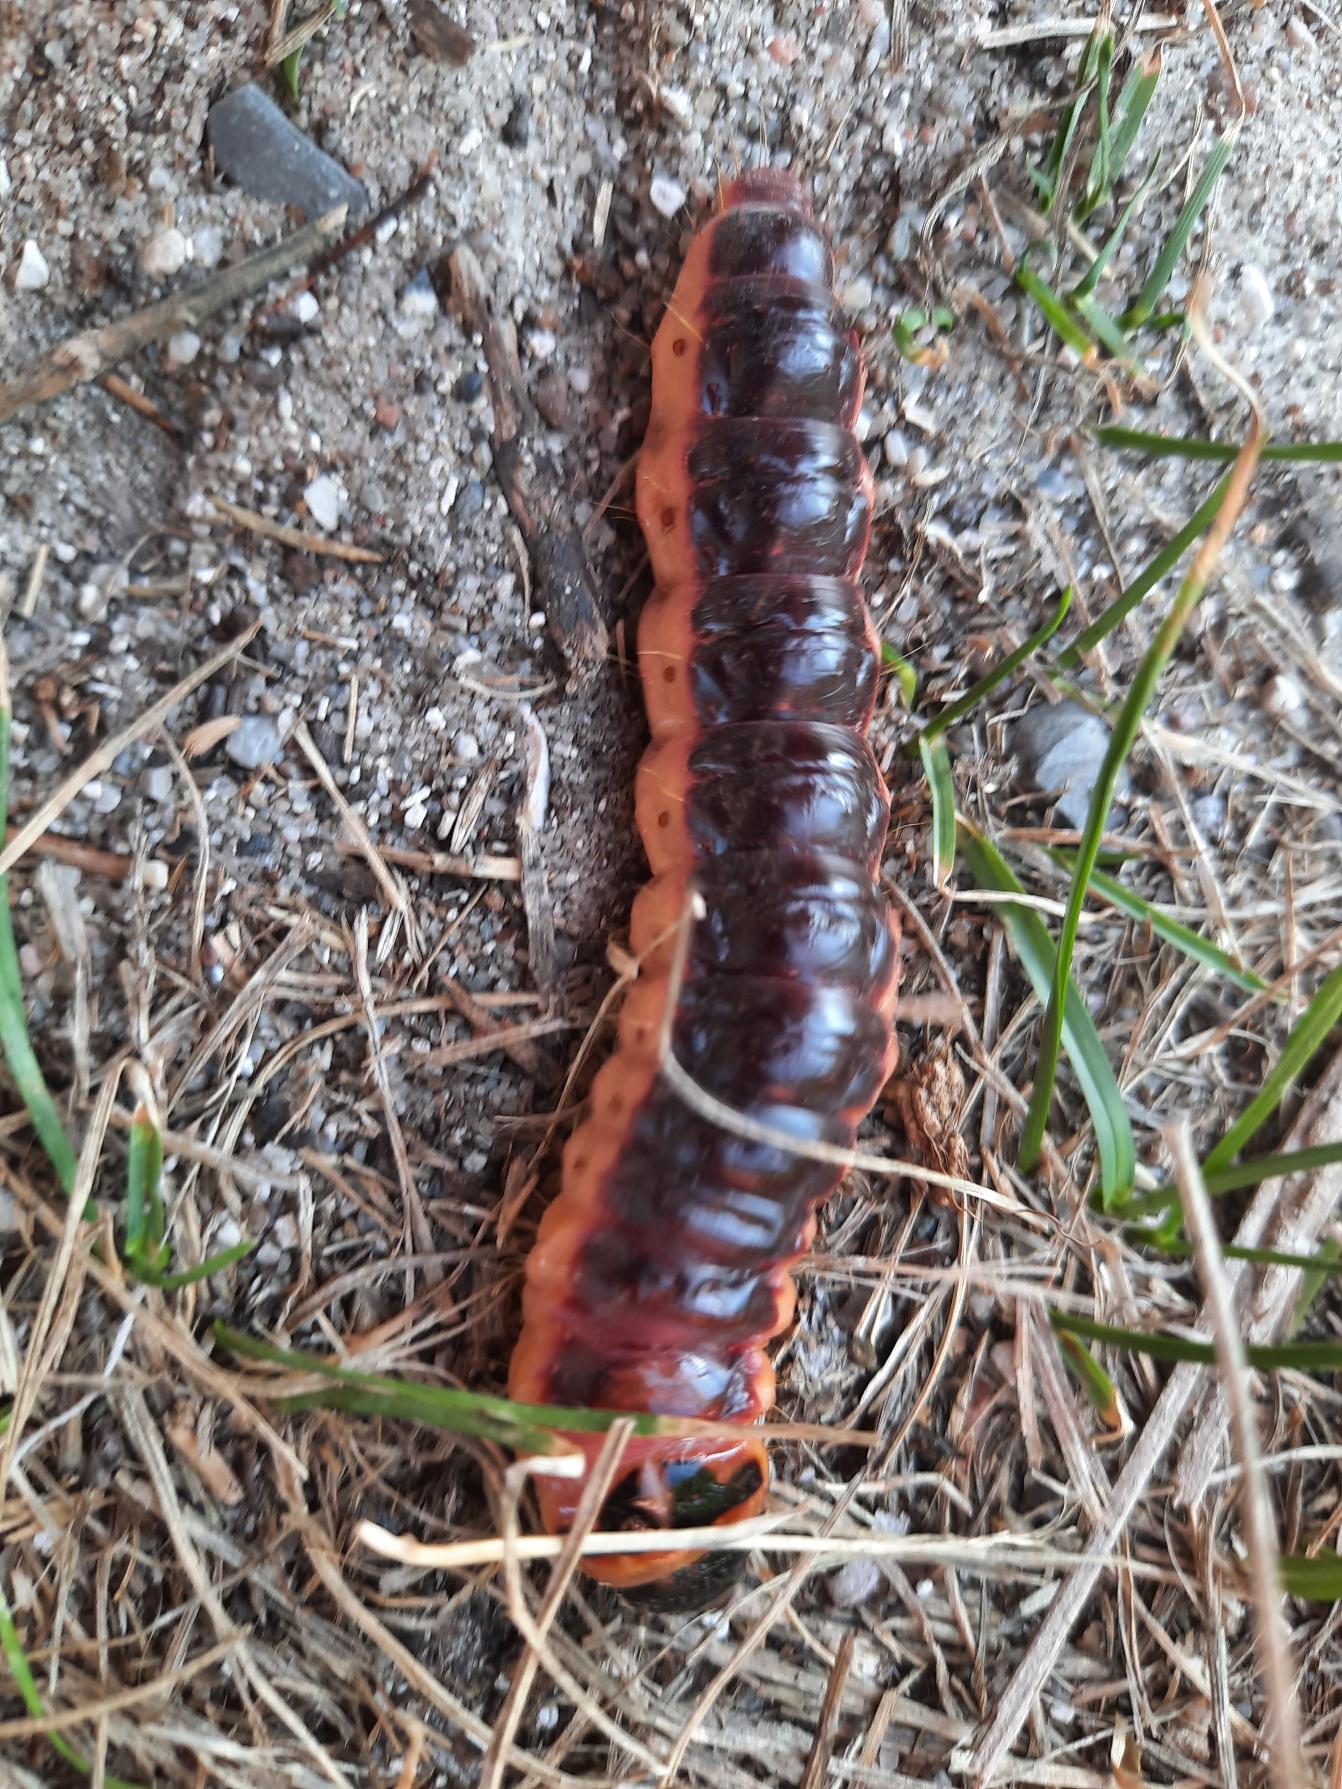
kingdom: Animalia
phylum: Arthropoda
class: Insecta
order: Lepidoptera
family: Cossidae
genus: Cossus
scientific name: Cossus cossus
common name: Pileborer
